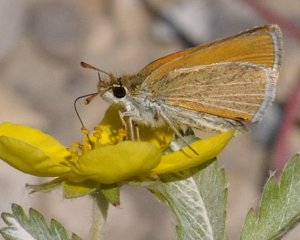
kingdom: Animalia
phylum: Arthropoda
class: Insecta
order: Lepidoptera
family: Hesperiidae
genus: Oarisma
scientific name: Oarisma garita
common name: Garita Skipperling
